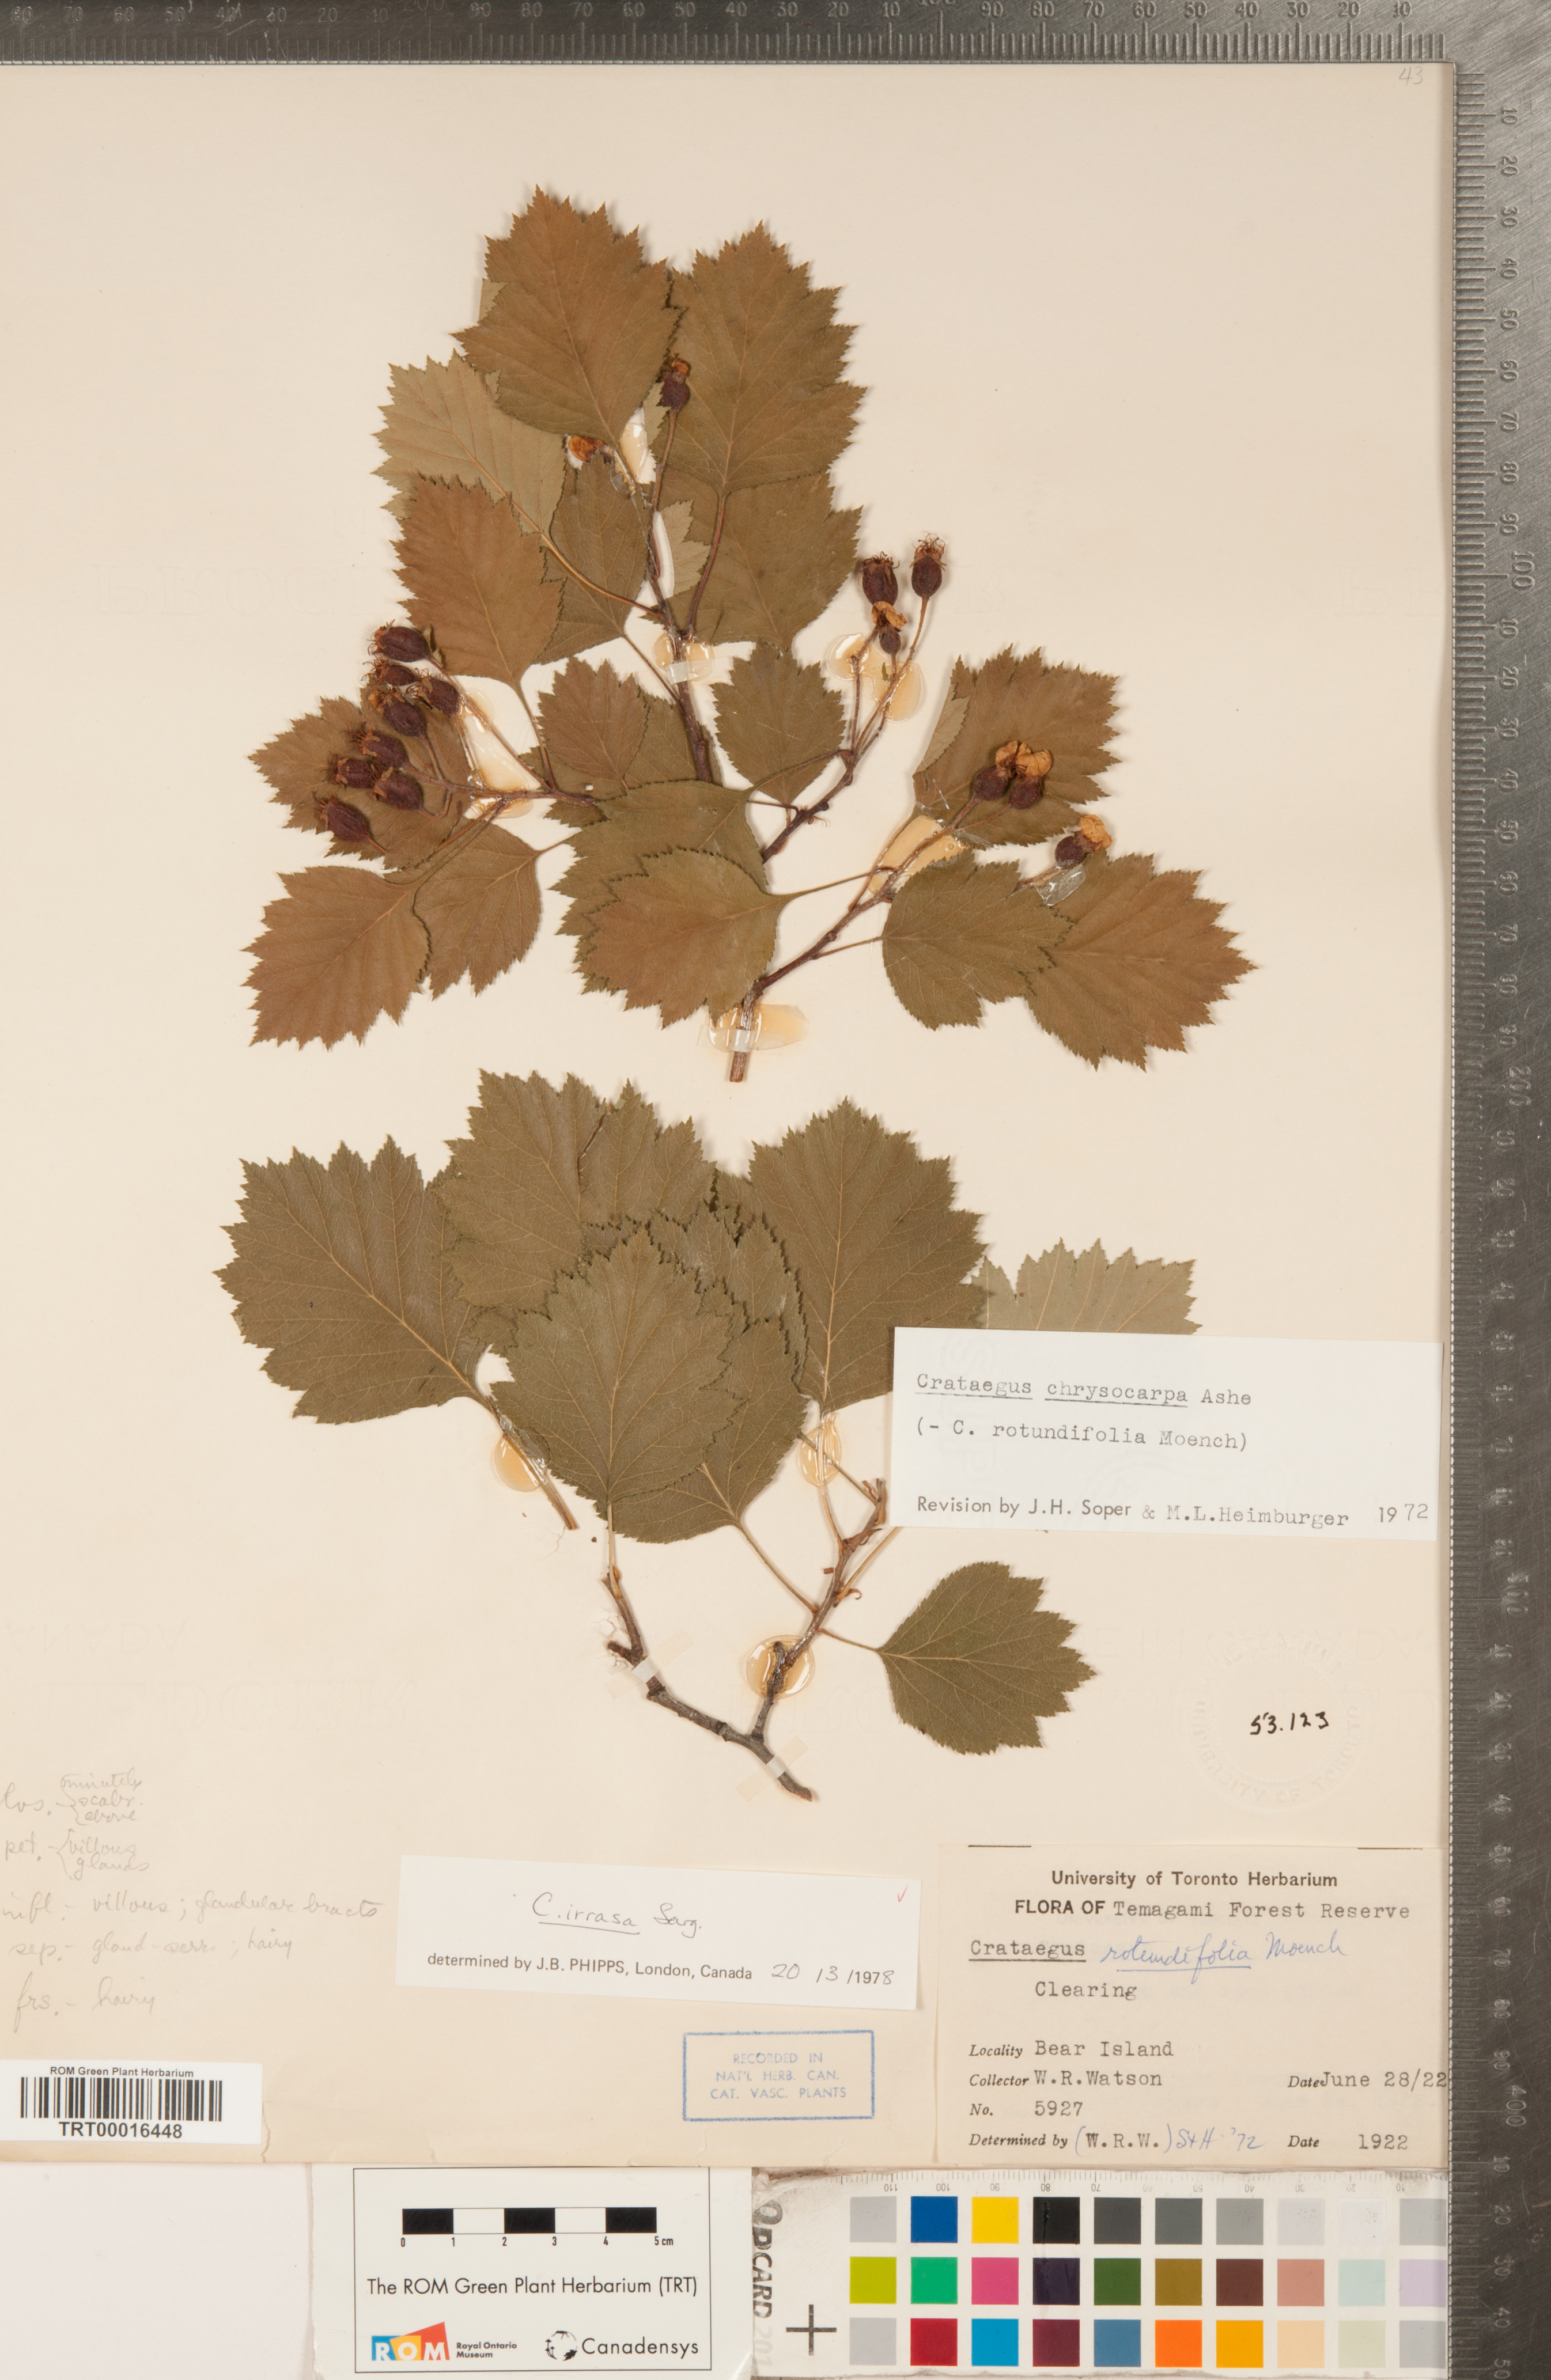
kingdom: Plantae
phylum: Tracheophyta
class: Magnoliopsida
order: Rosales
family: Rosaceae
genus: Crataegus
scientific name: Crataegus irrasa
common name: Unshorn hawthorn
